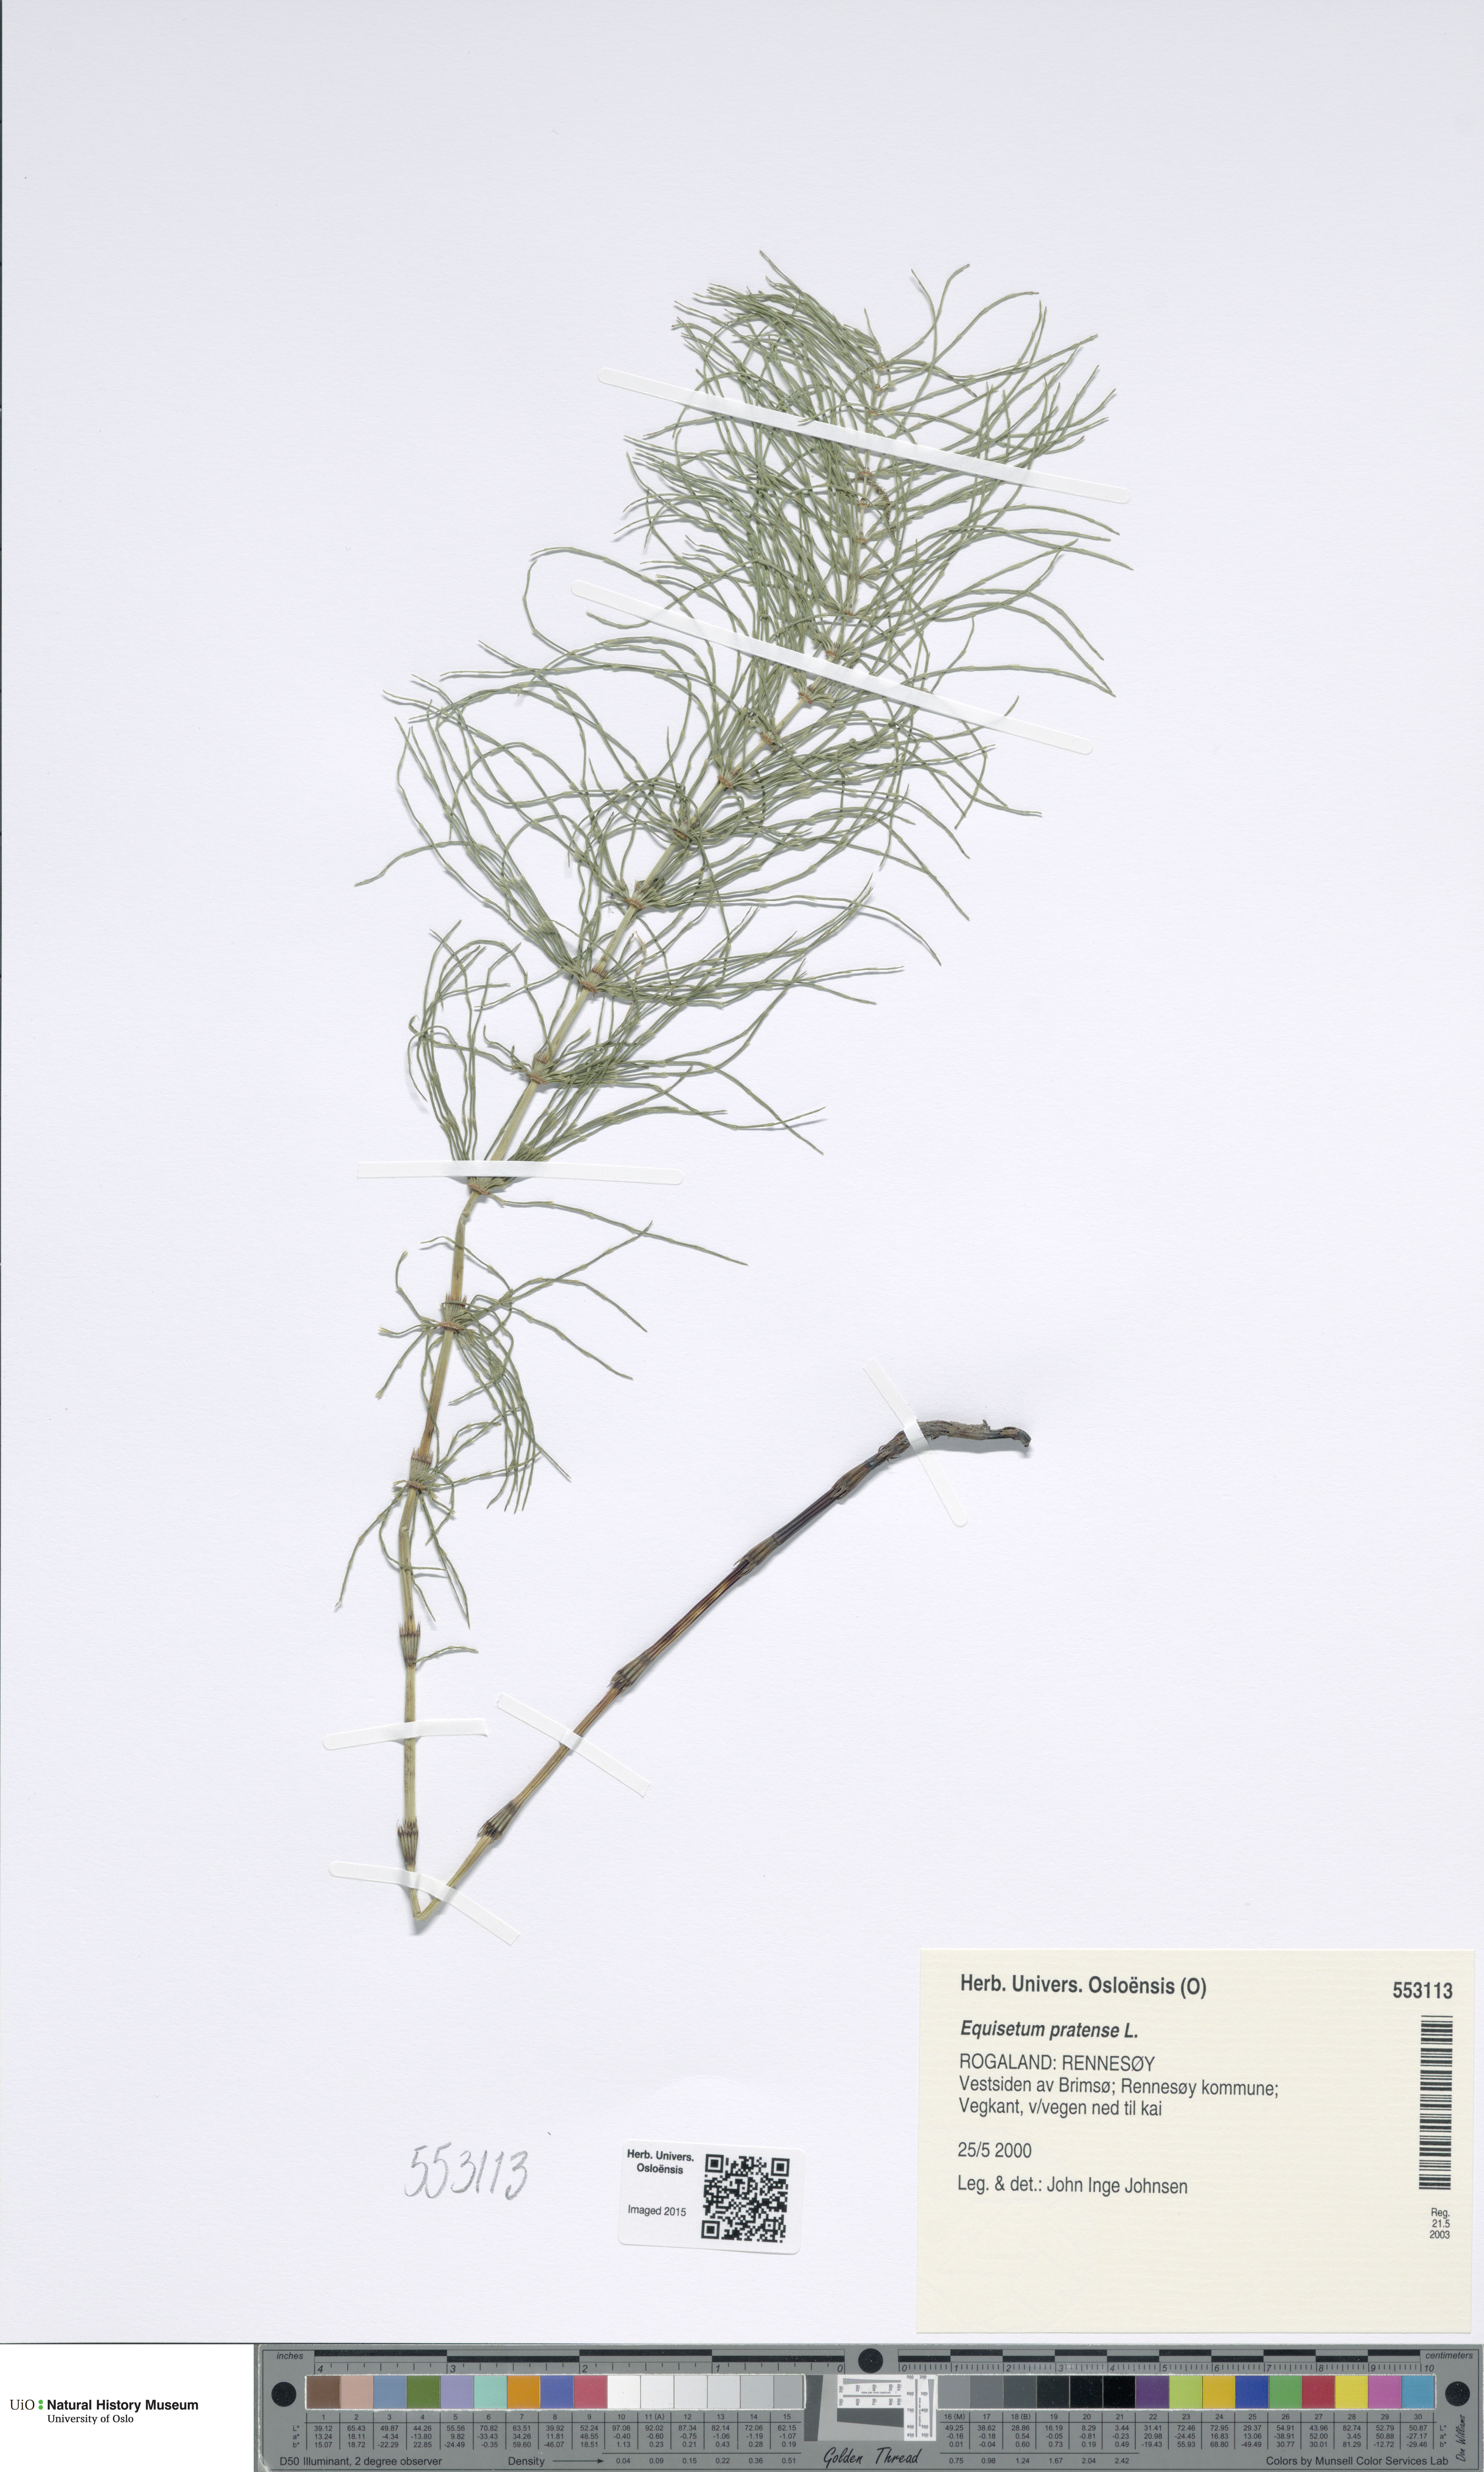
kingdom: Plantae
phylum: Tracheophyta
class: Polypodiopsida
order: Equisetales
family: Equisetaceae
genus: Equisetum
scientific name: Equisetum pratense
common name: Meadow horsetail
